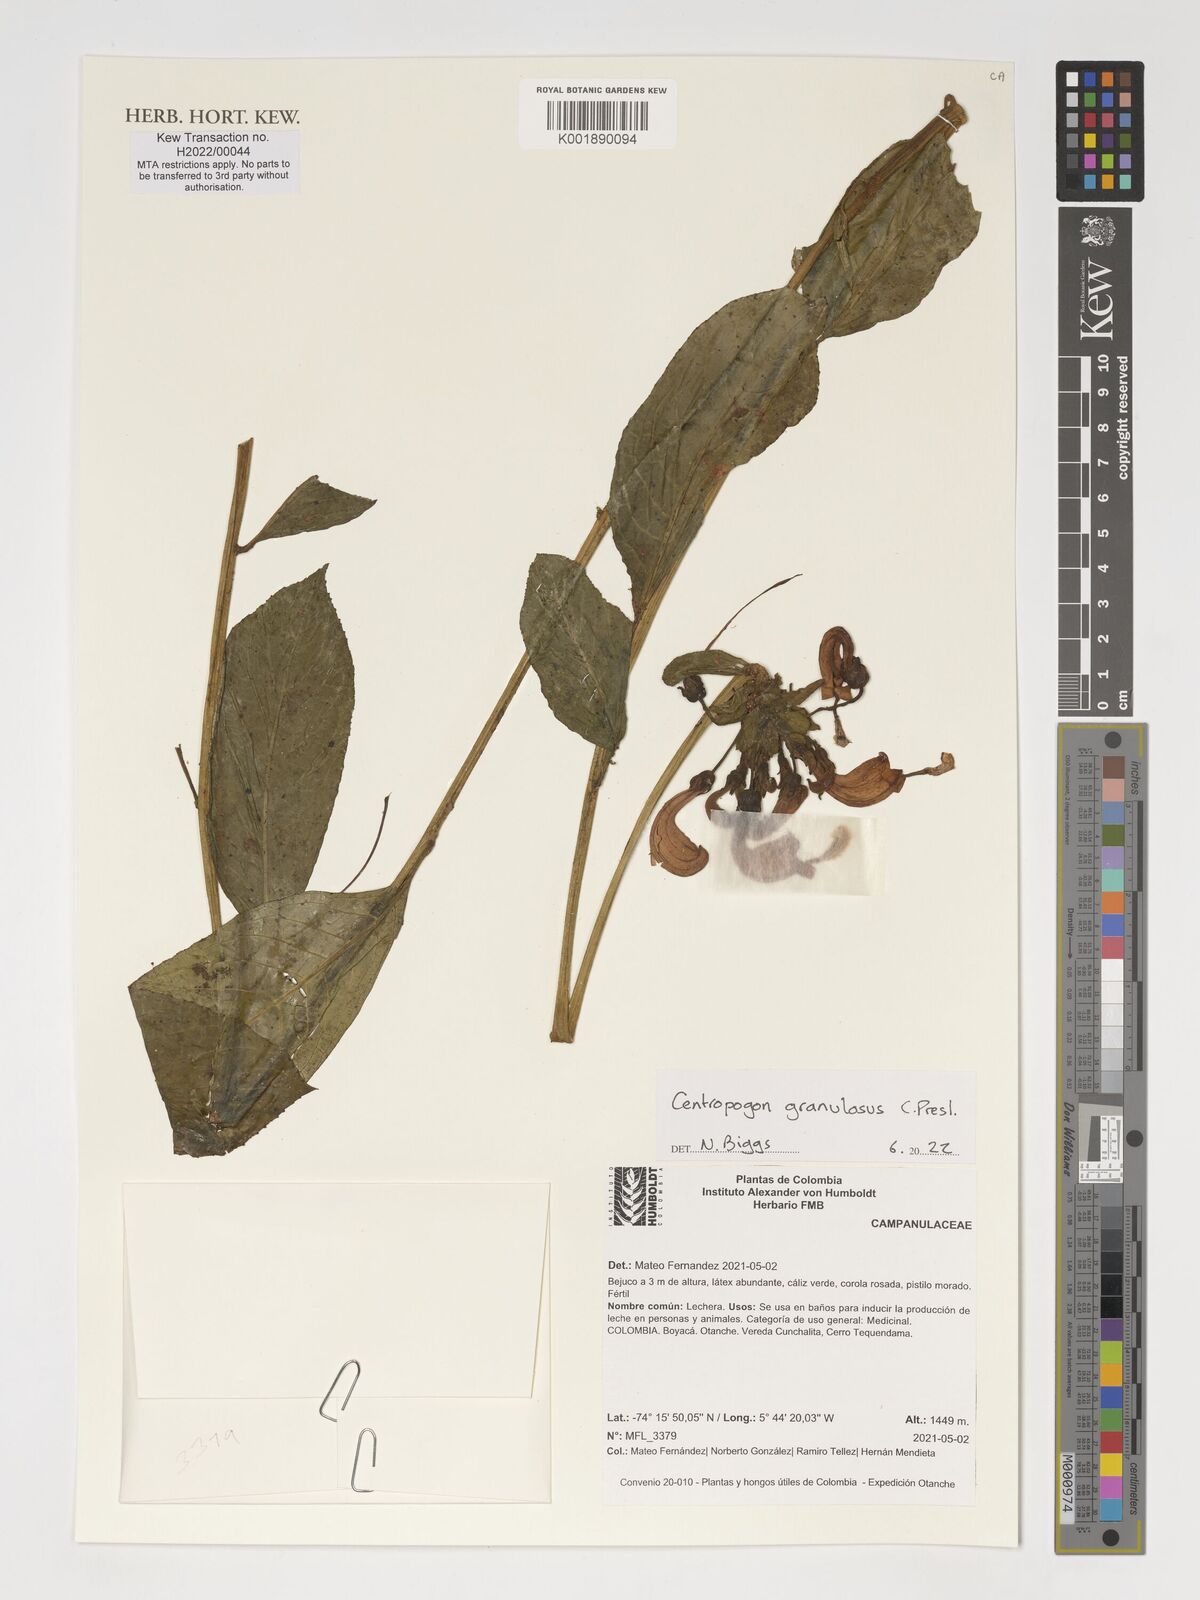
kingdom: Plantae
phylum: Tracheophyta
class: Magnoliopsida
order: Asterales
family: Campanulaceae
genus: Centropogon
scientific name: Centropogon granulosus
